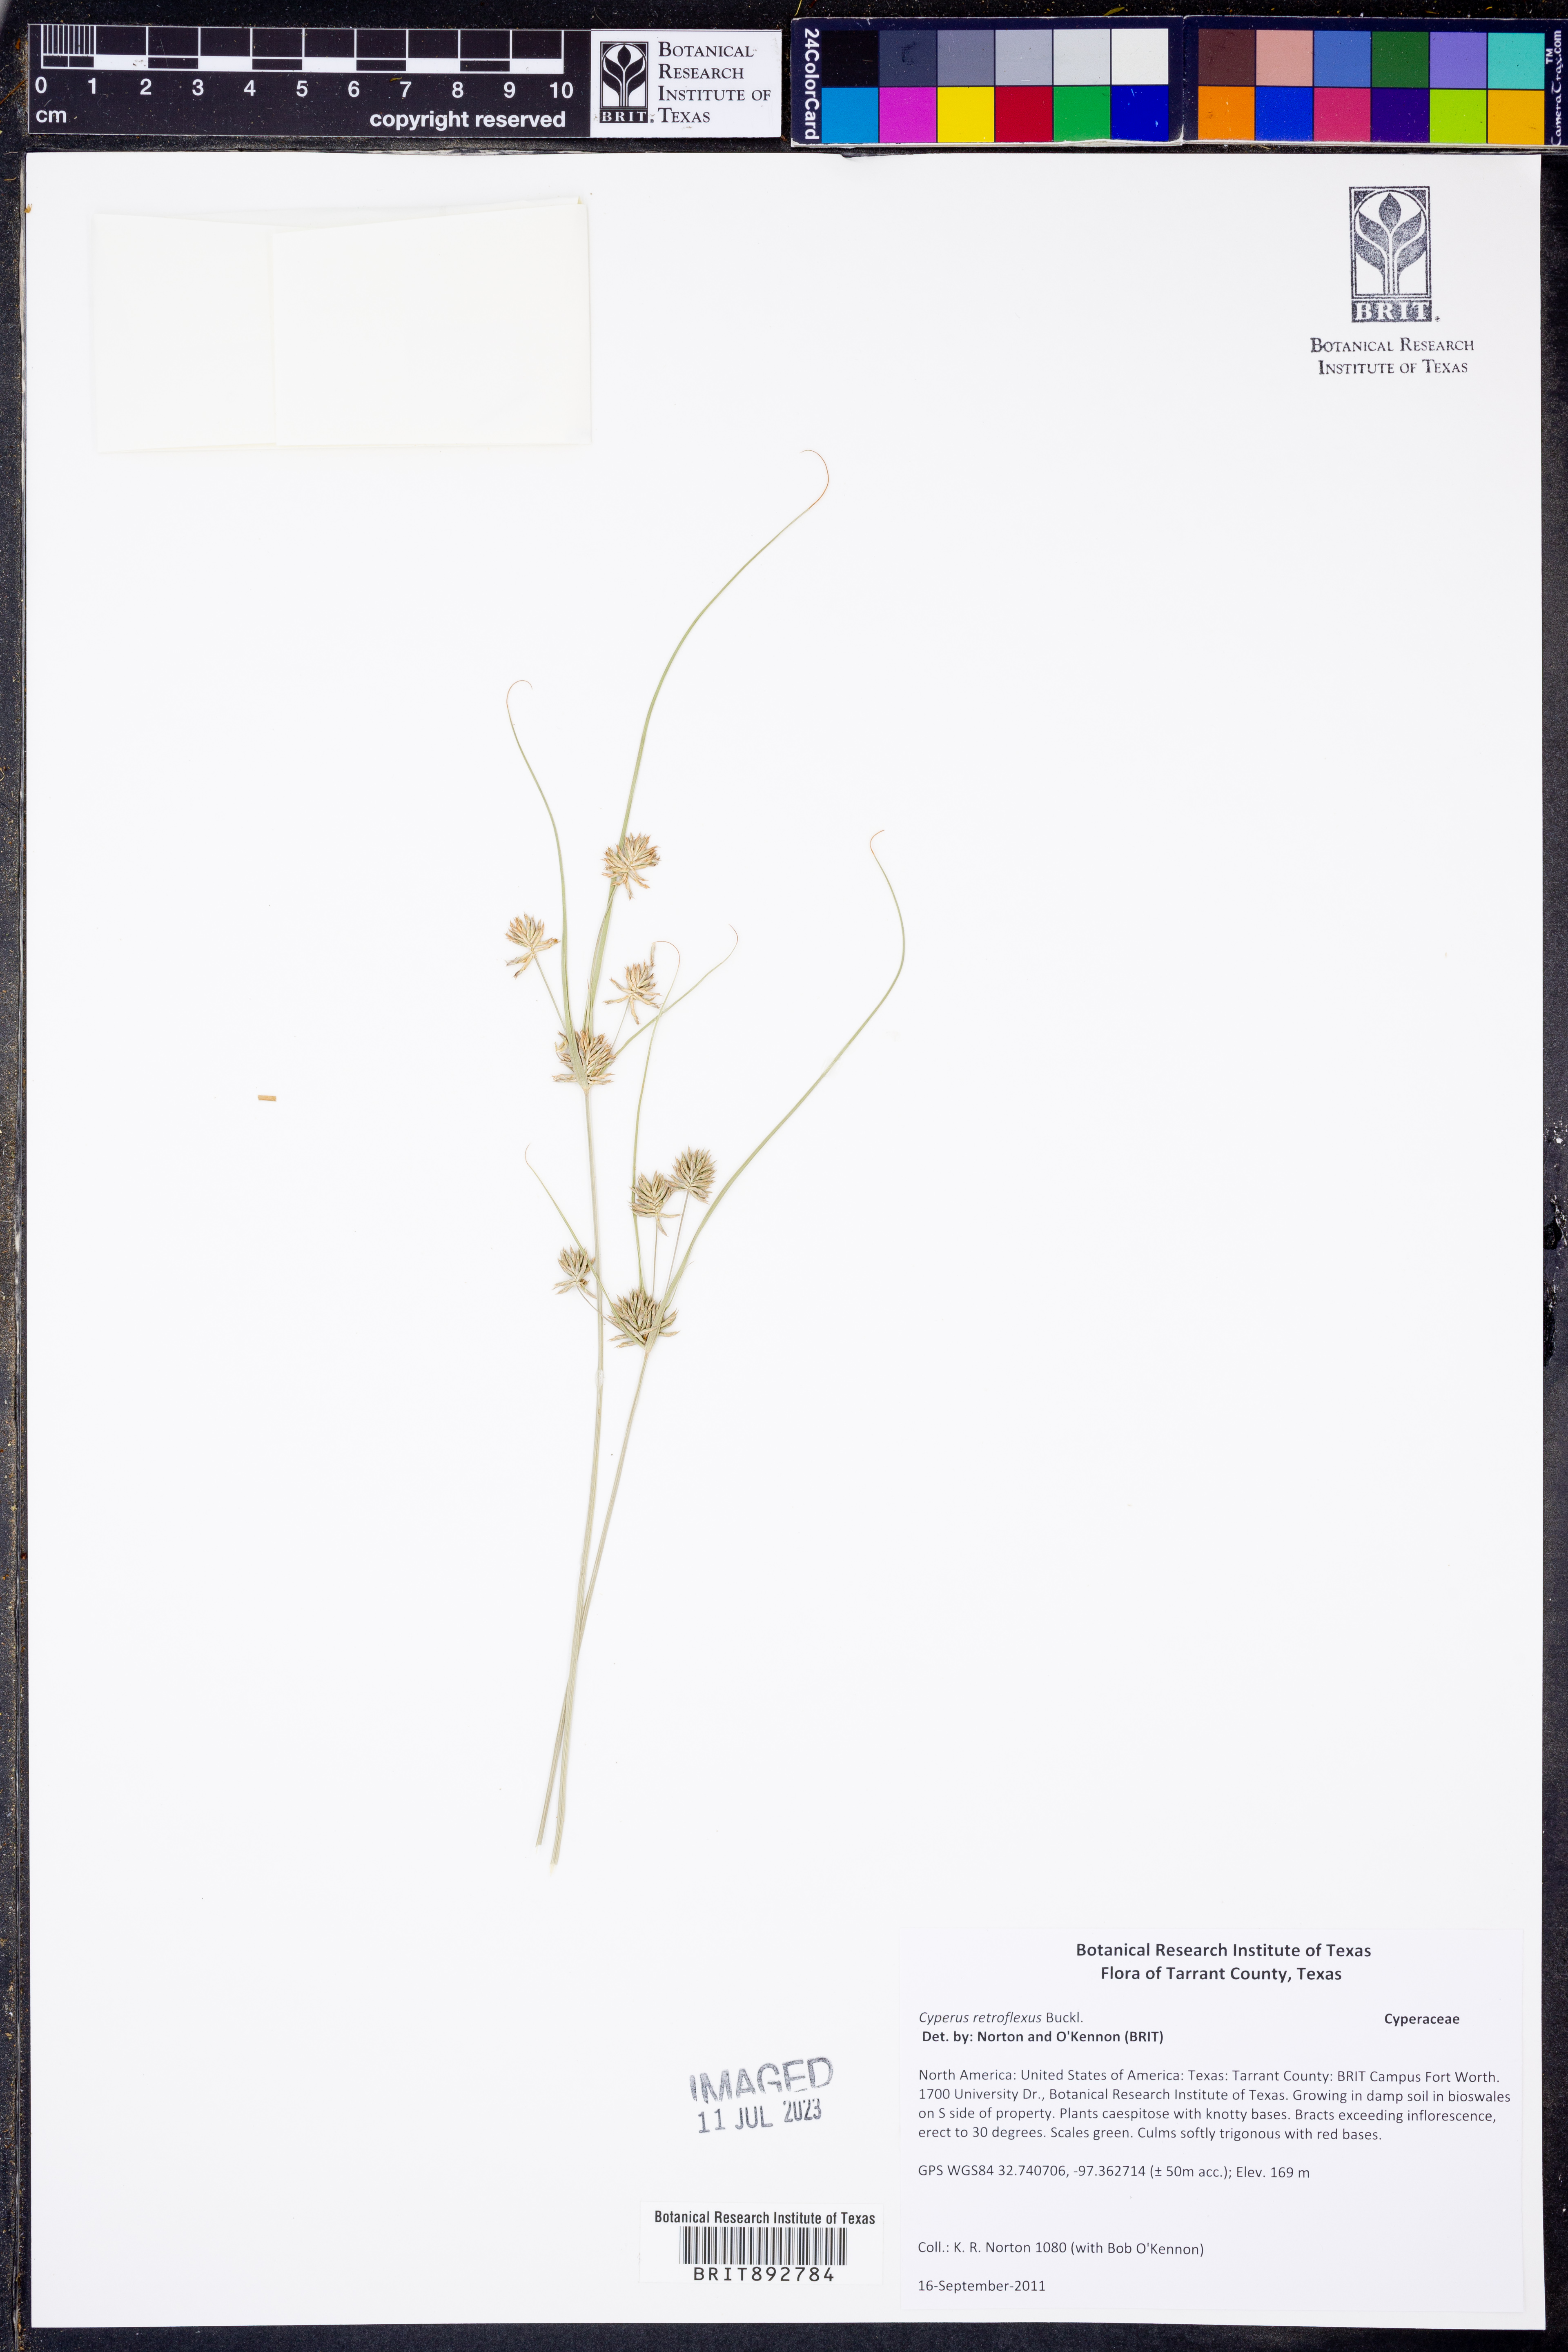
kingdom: Plantae
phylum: Tracheophyta
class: Liliopsida
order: Poales
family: Cyperaceae
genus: Cyperus
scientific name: Cyperus retroflexus
